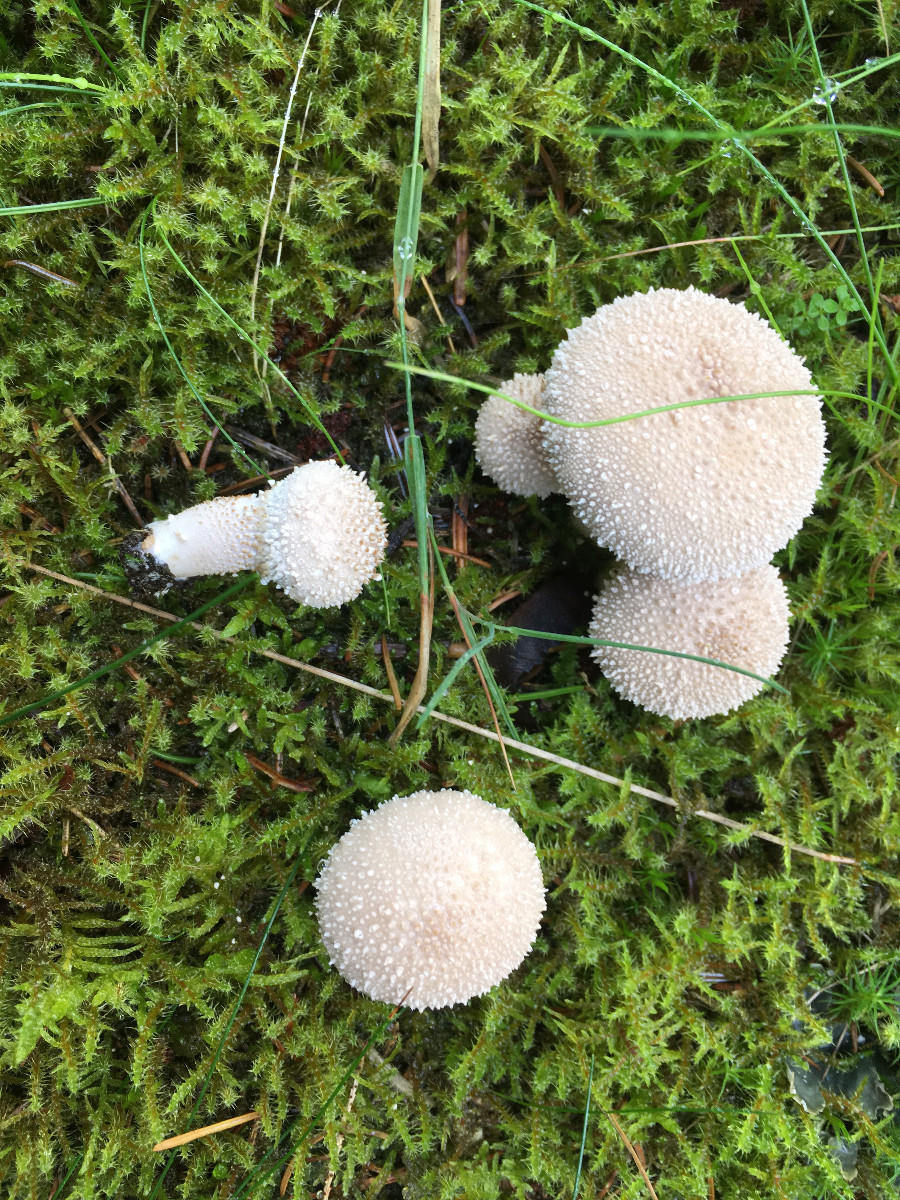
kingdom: Fungi
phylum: Basidiomycota
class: Agaricomycetes
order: Agaricales
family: Lycoperdaceae
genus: Lycoperdon
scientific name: Lycoperdon perlatum
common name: krystal-støvbold
